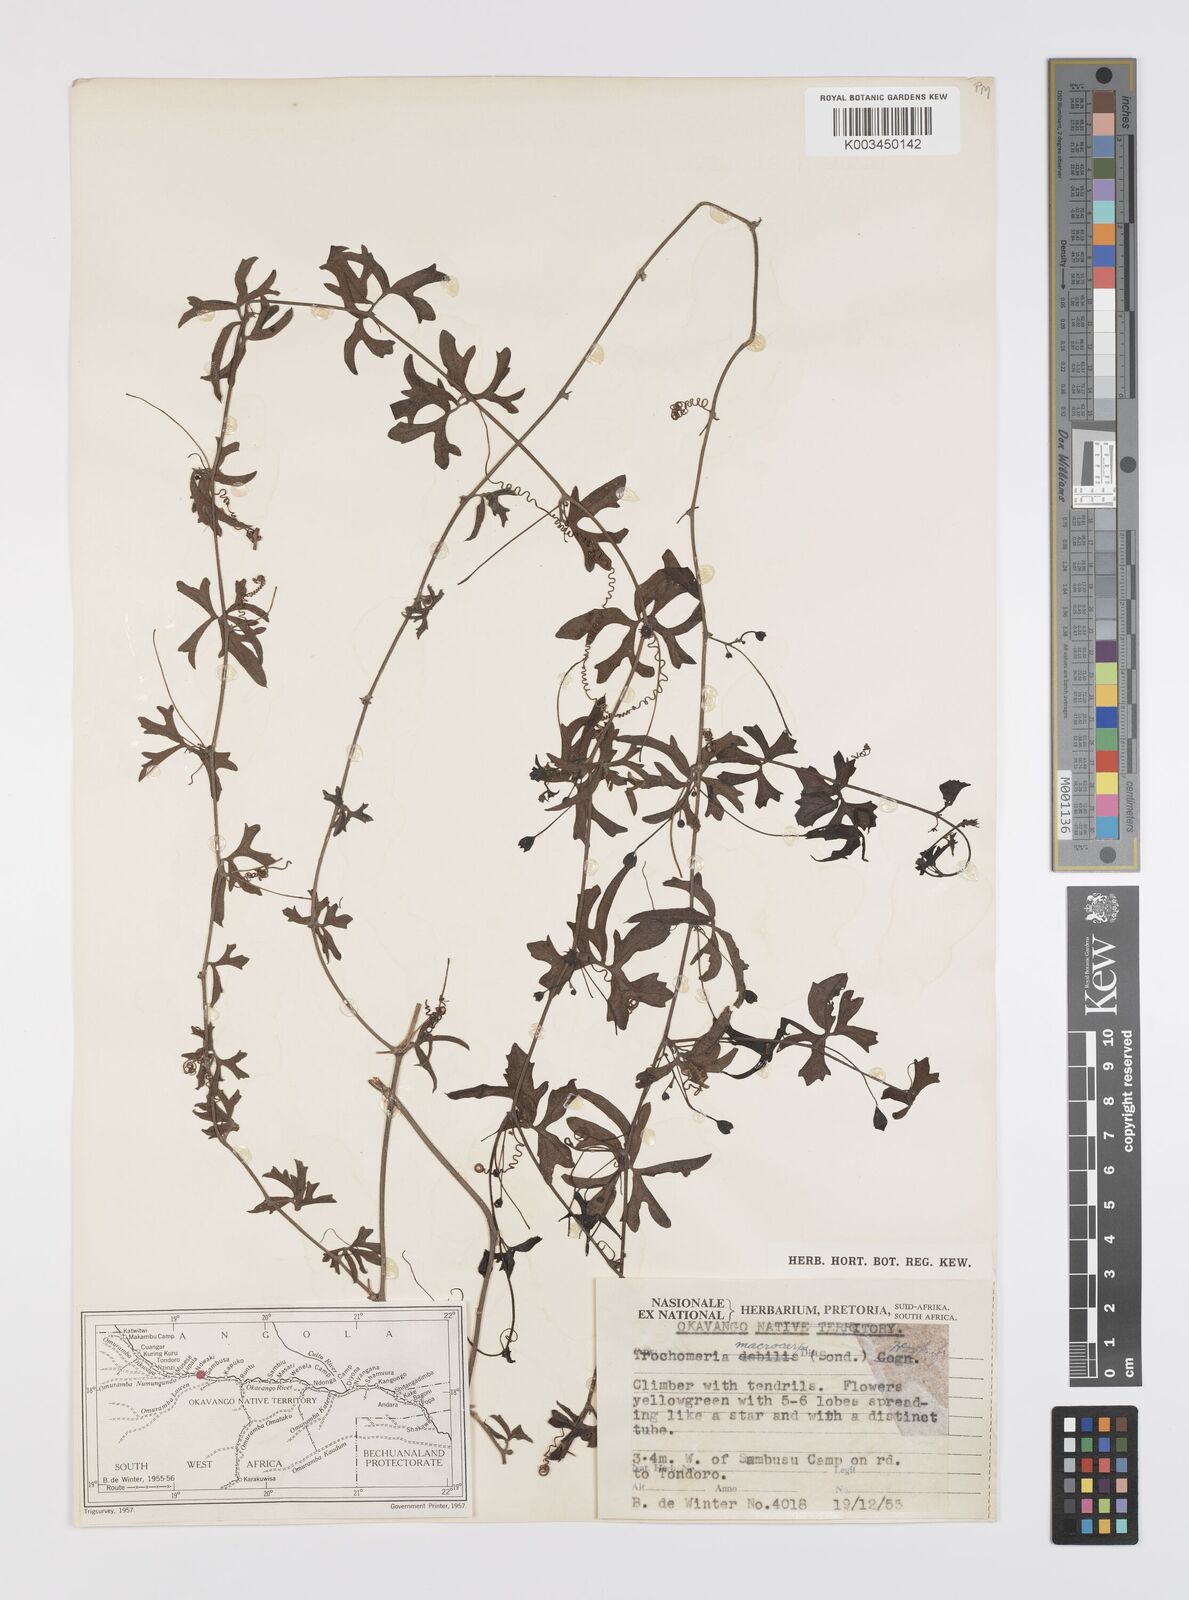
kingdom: Plantae
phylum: Tracheophyta
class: Magnoliopsida
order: Cucurbitales
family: Cucurbitaceae
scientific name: Cucurbitaceae
